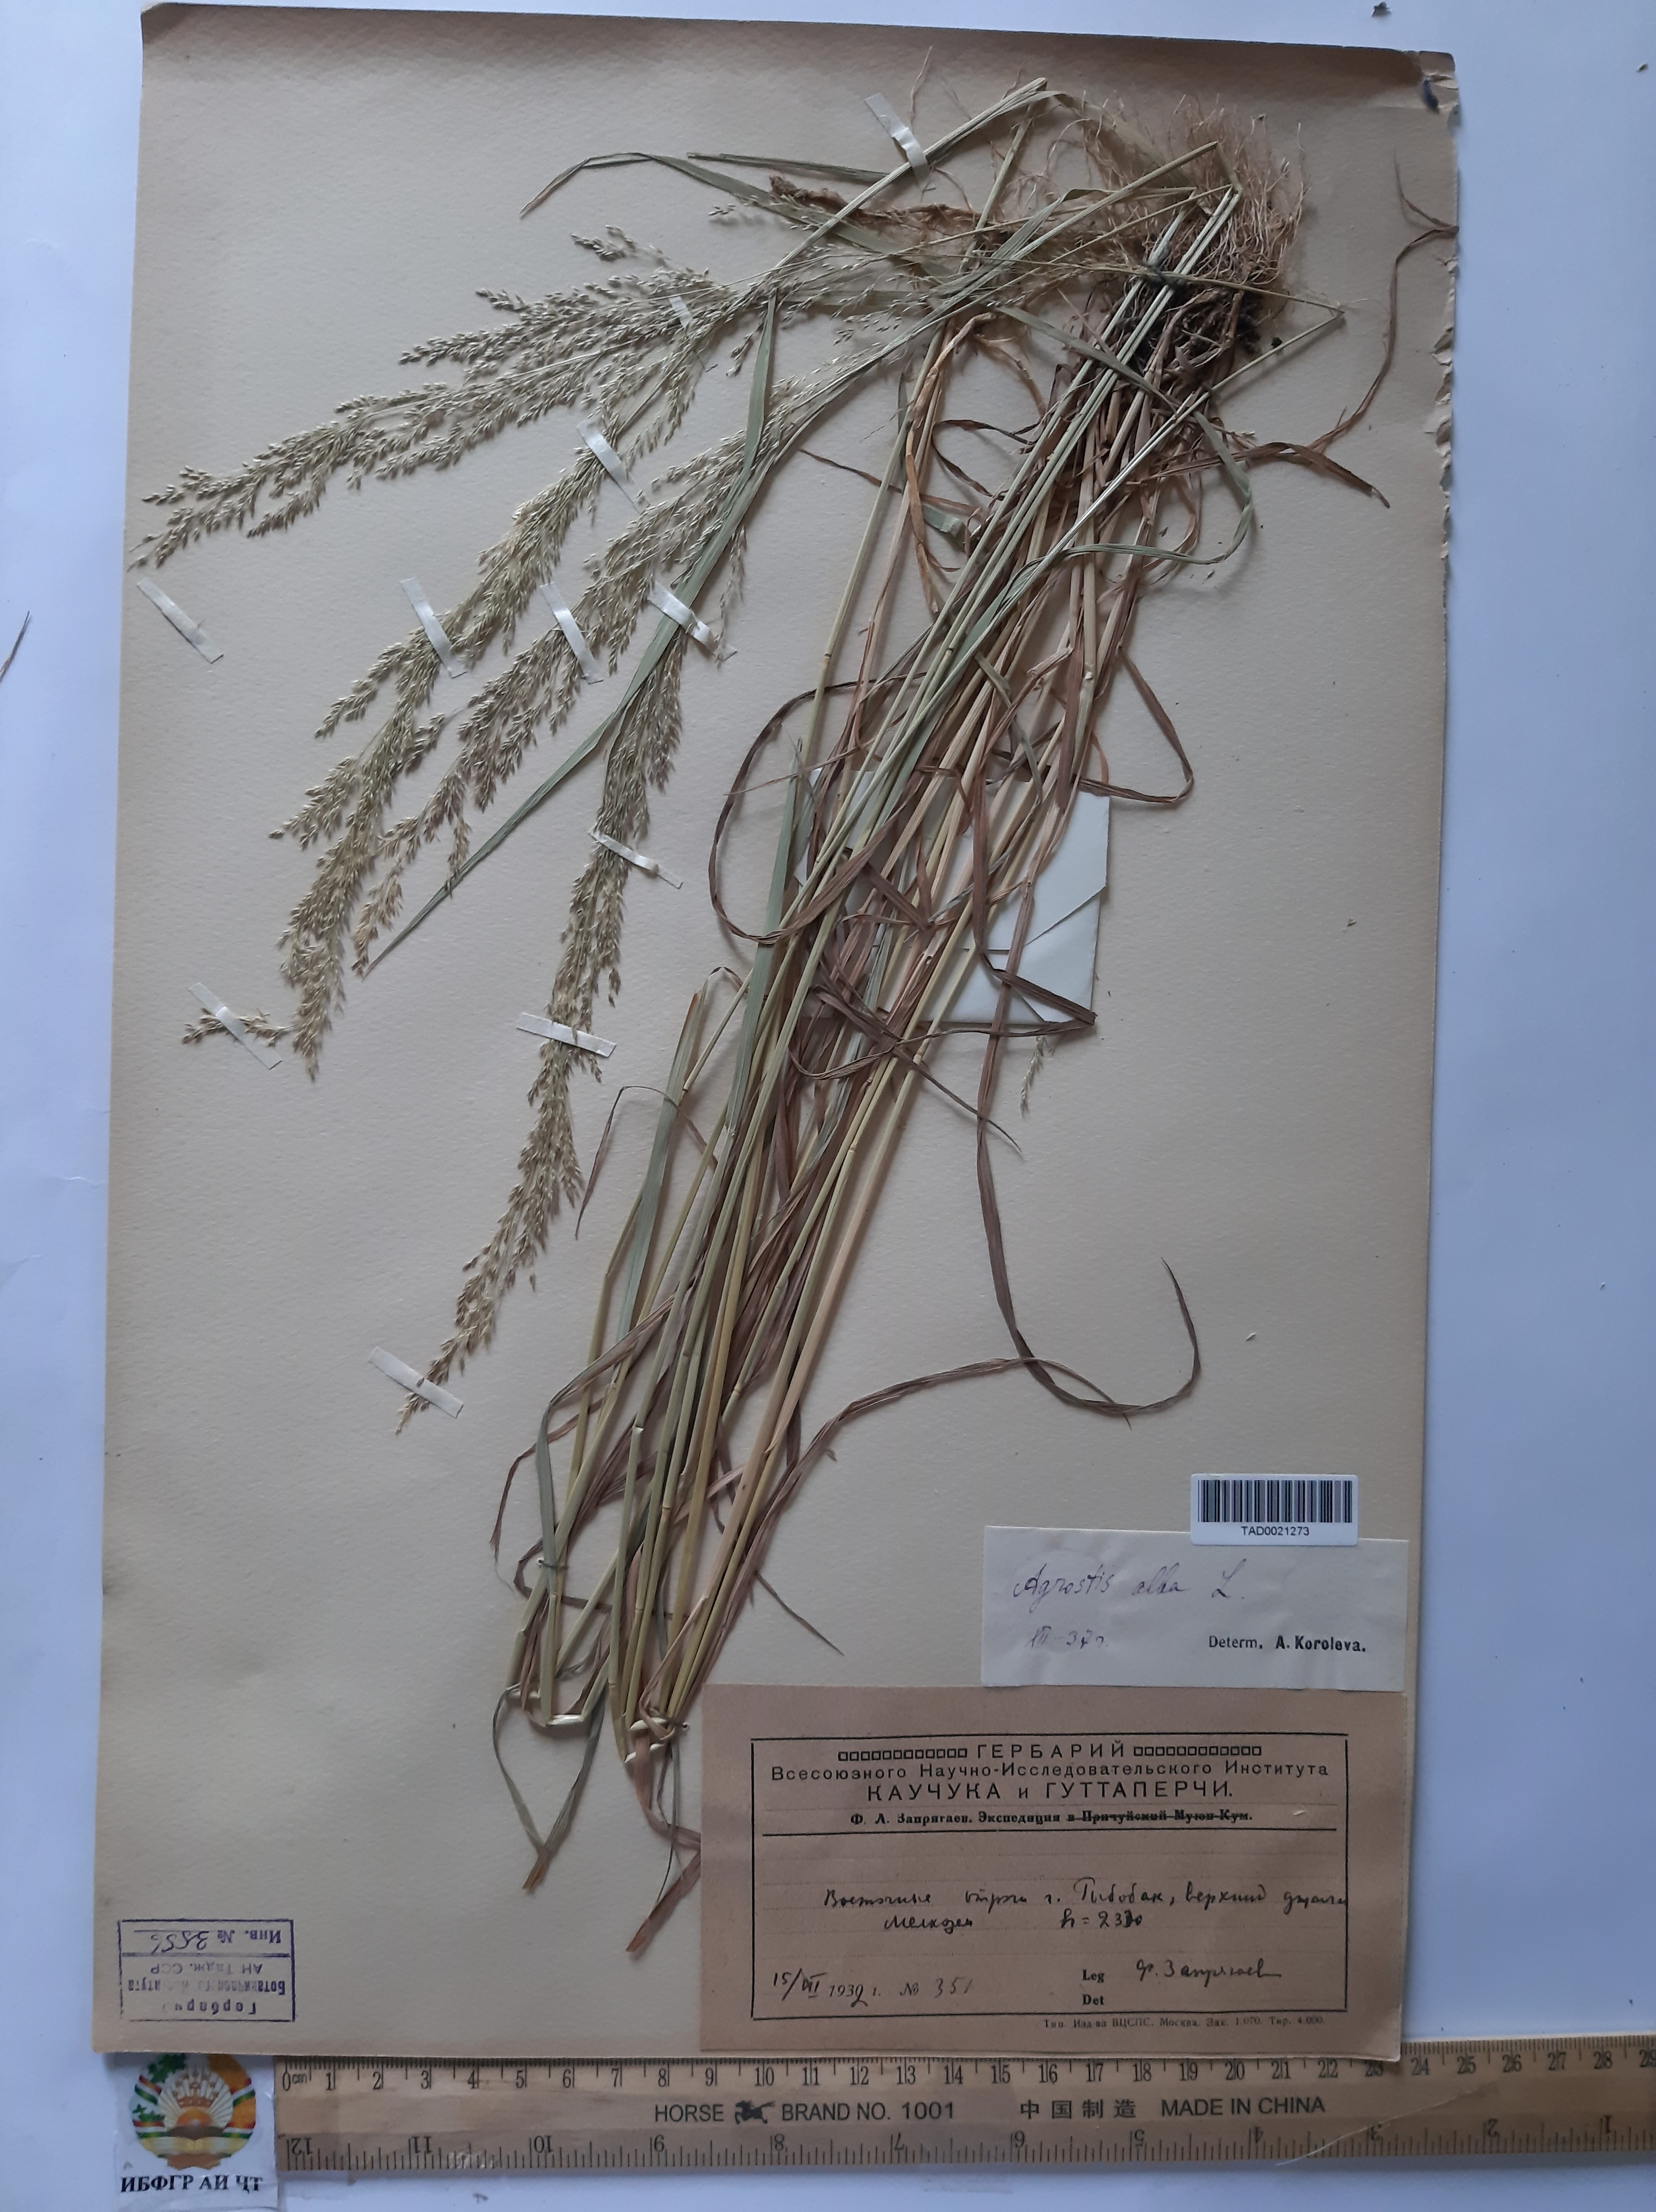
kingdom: Plantae
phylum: Tracheophyta
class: Liliopsida
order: Poales
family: Poaceae
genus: Poa
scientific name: Poa nemoralis
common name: Wood bluegrass
